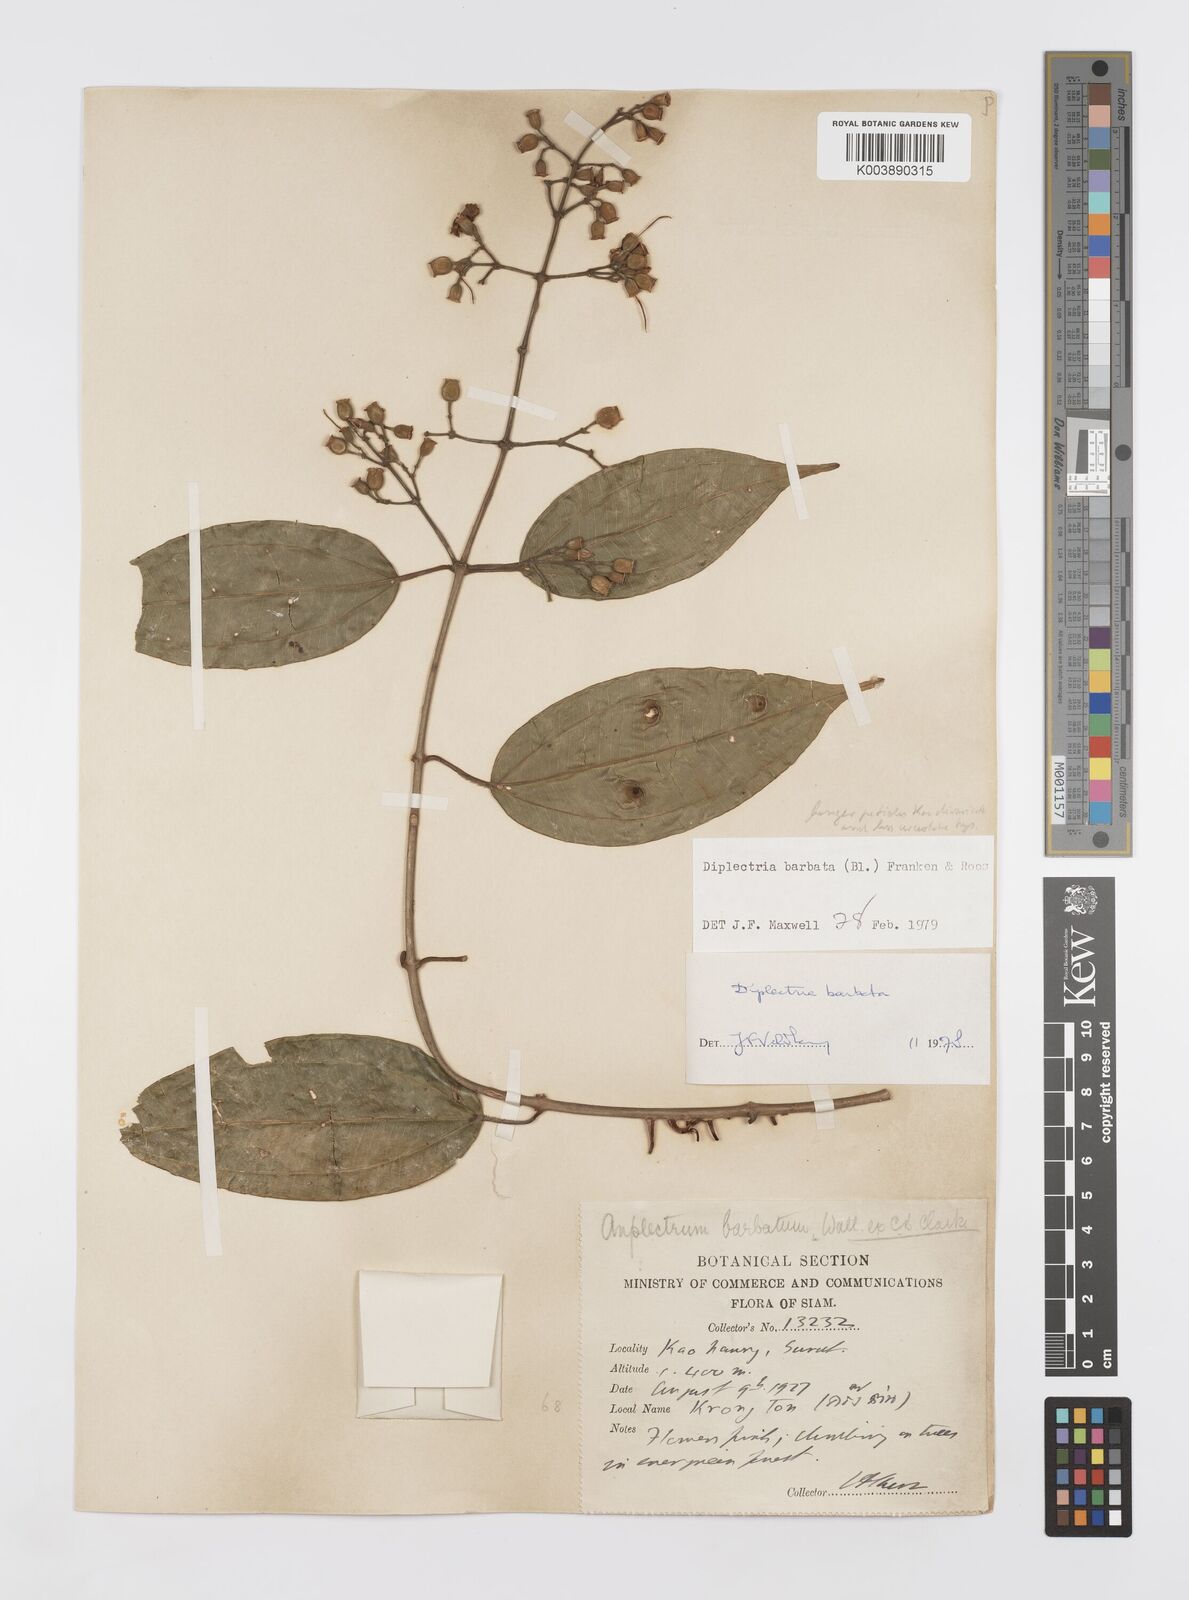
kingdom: Plantae
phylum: Tracheophyta
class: Magnoliopsida
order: Myrtales
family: Melastomataceae
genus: Diplectria
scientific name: Diplectria barbata
